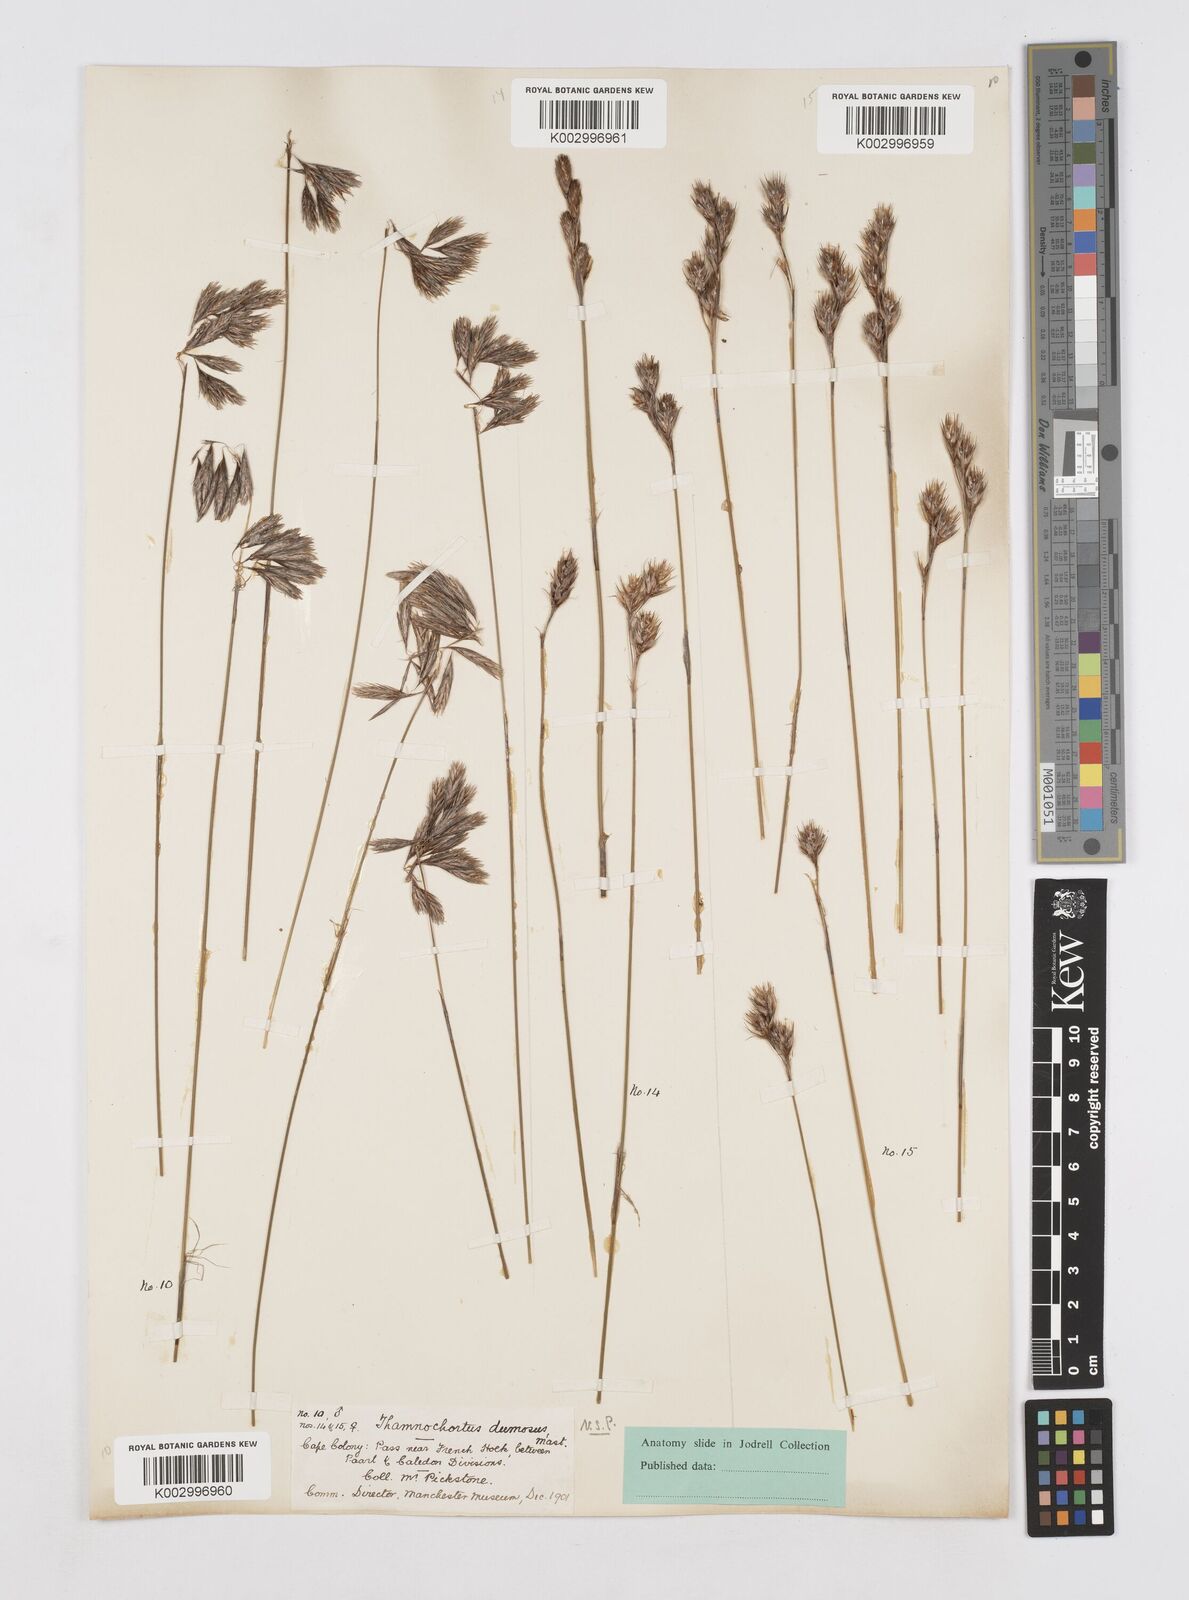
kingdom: Plantae
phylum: Tracheophyta
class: Liliopsida
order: Poales
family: Restionaceae
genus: Thamnochortus
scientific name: Thamnochortus dumosus
